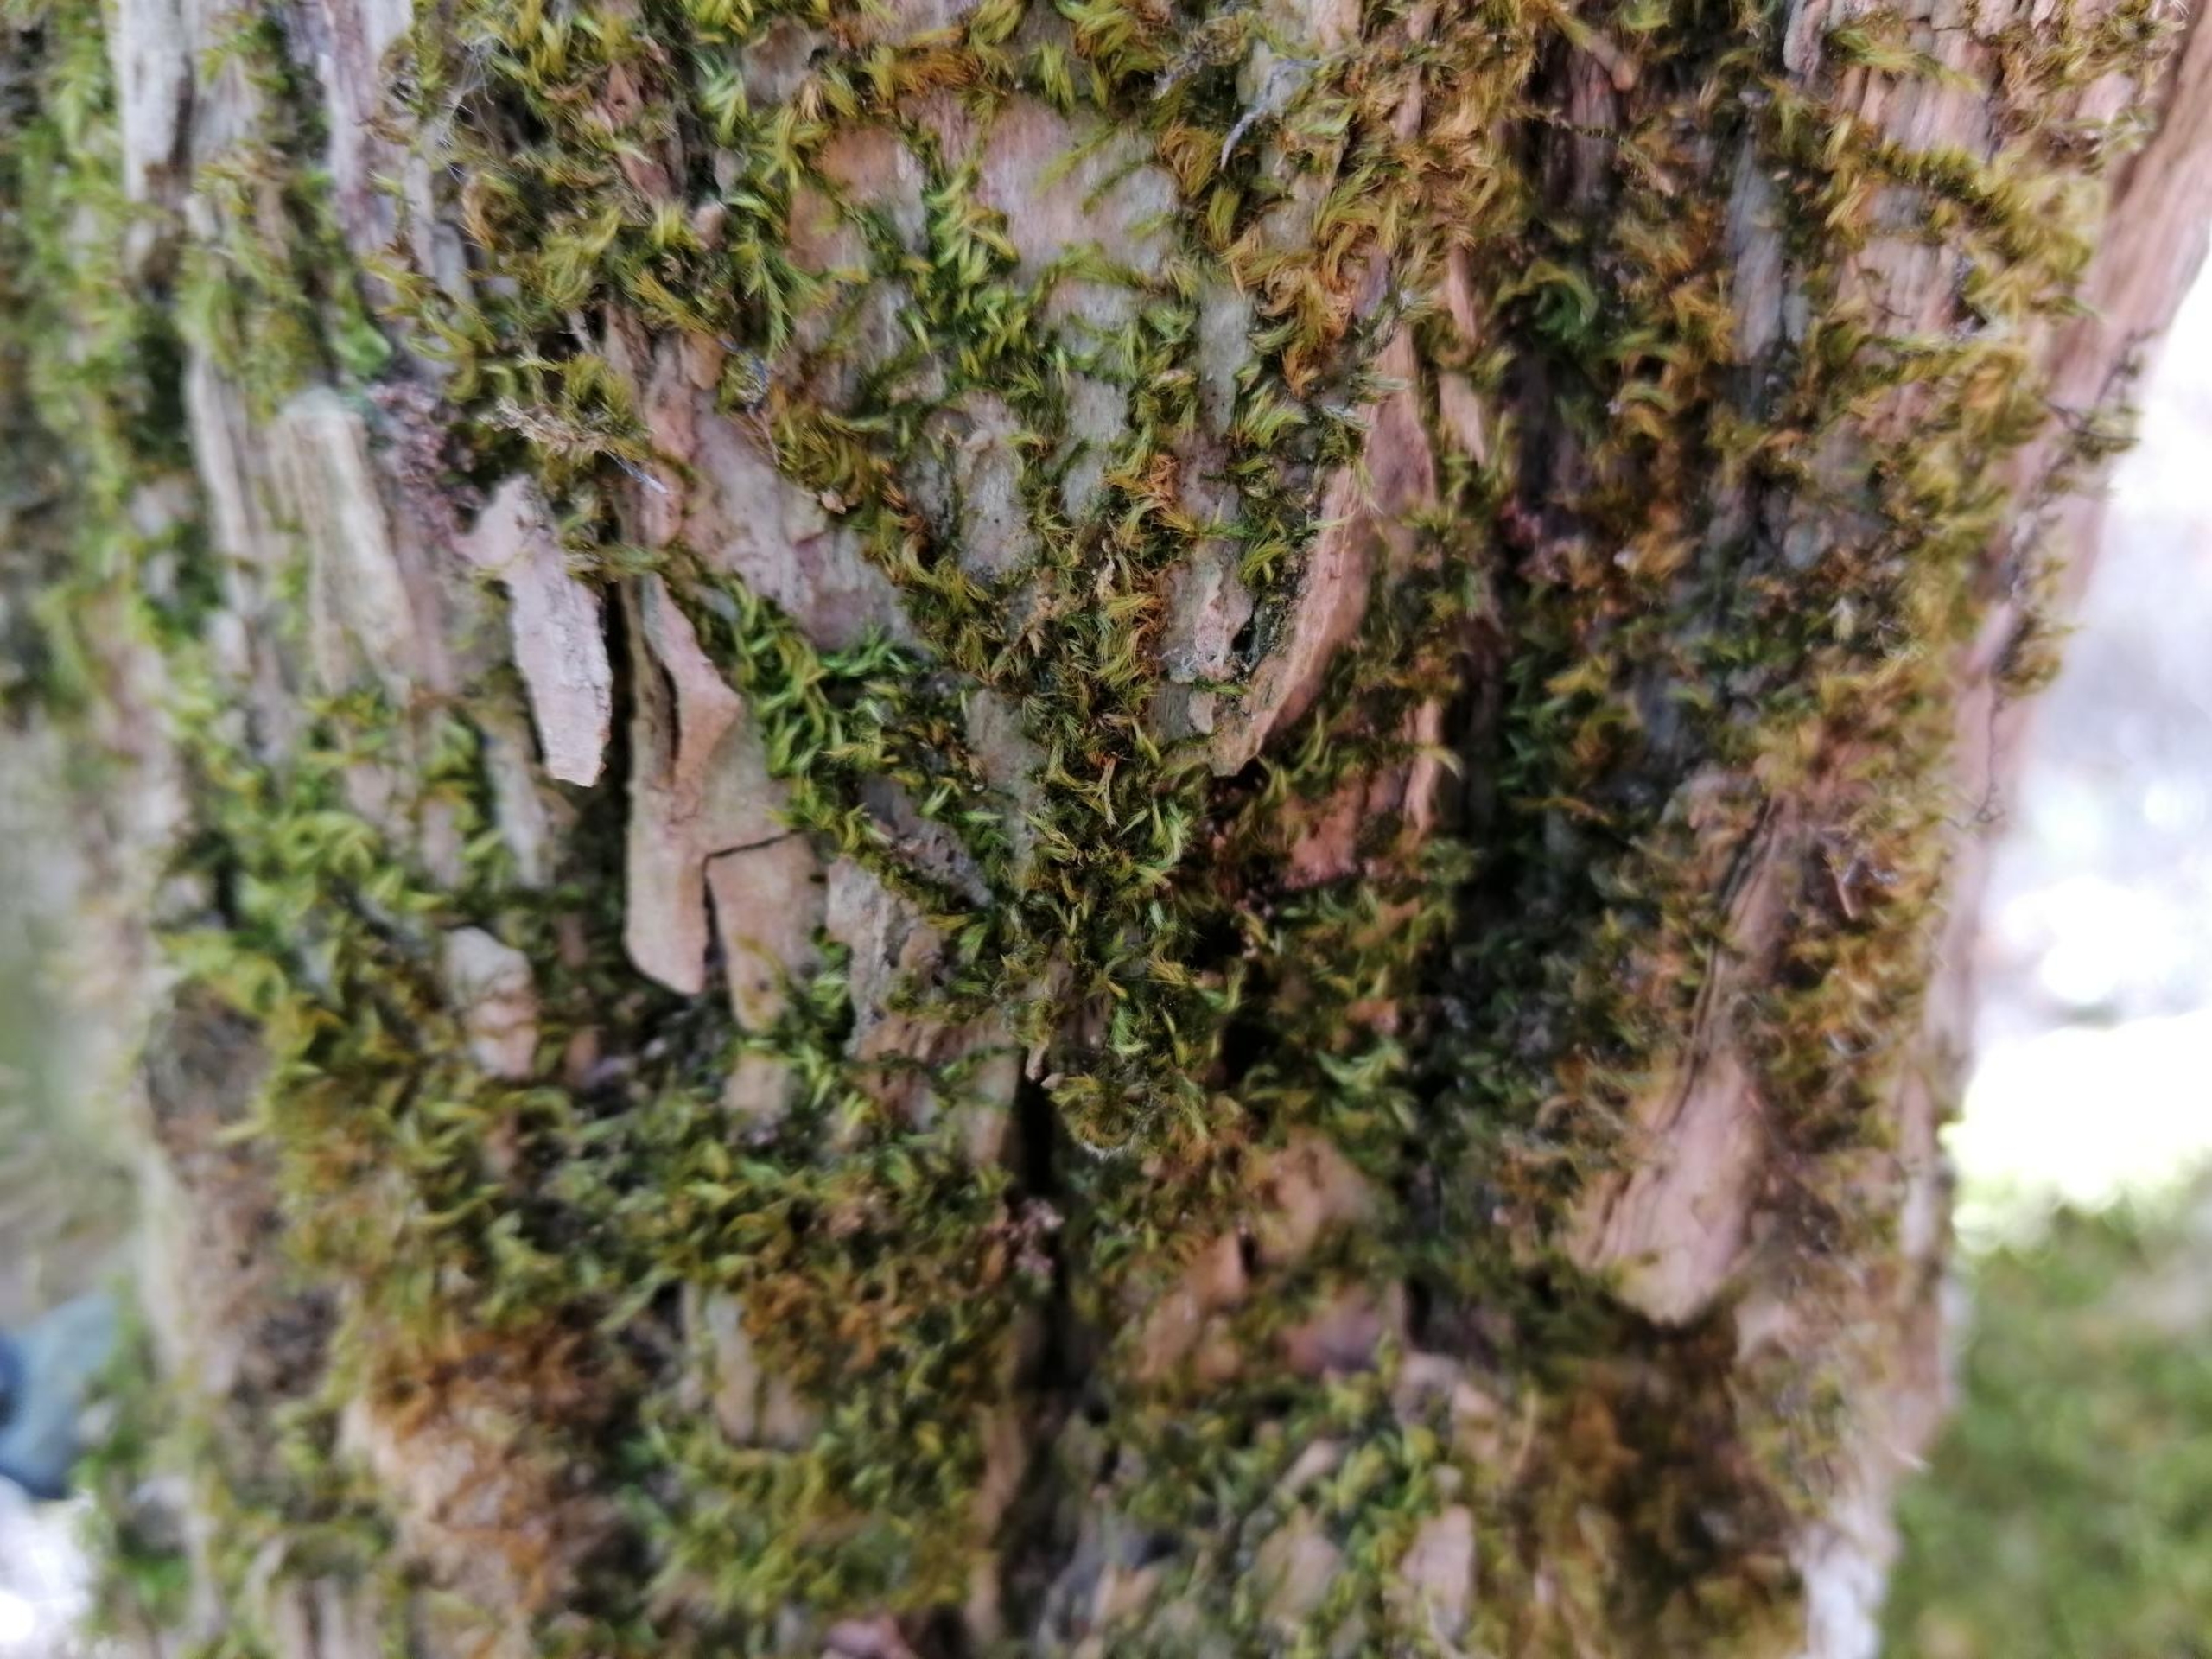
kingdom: Plantae
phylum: Bryophyta
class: Bryopsida
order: Hypnales
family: Brachytheciaceae
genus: Homalothecium
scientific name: Homalothecium sericeum
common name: Krybende silkemos
